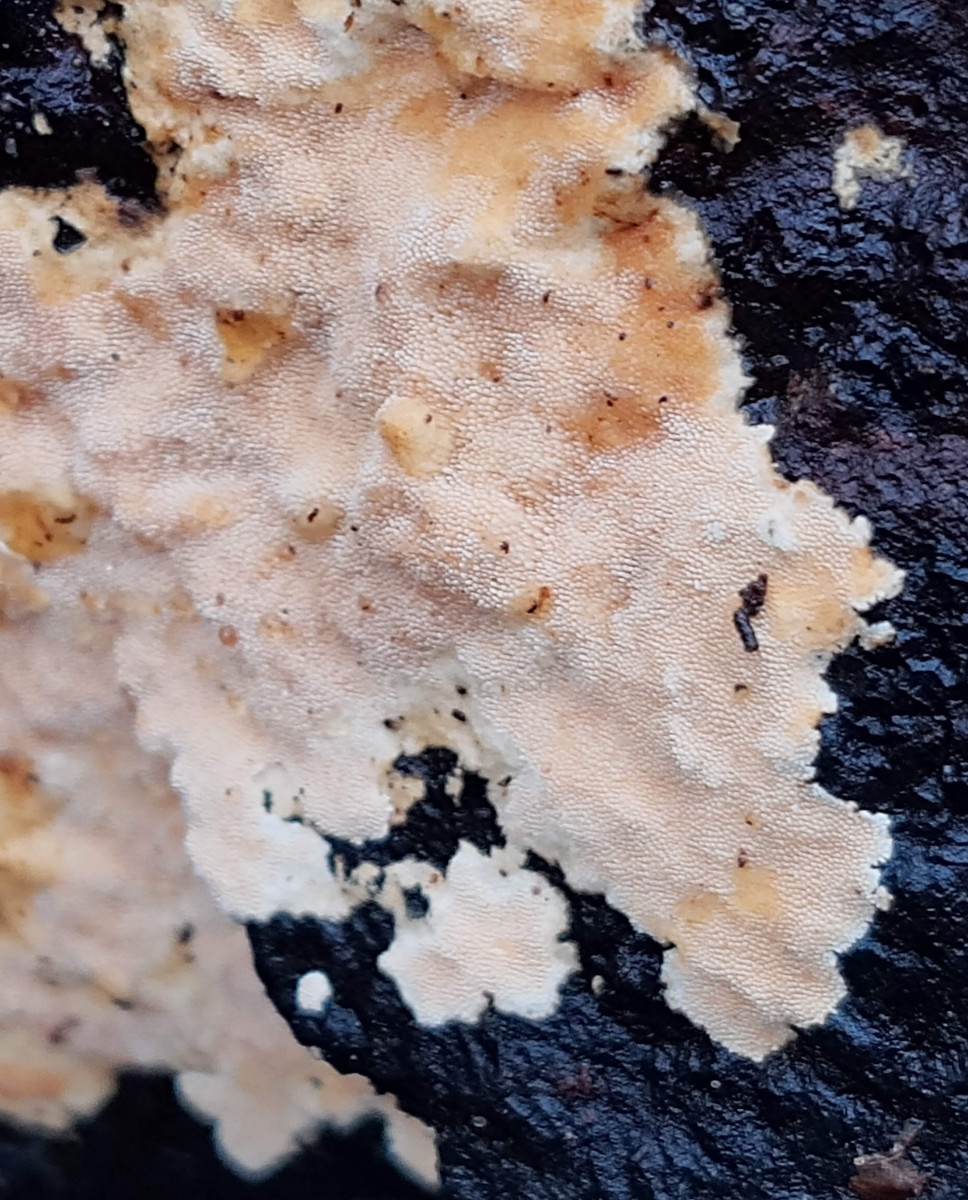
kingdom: Fungi
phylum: Basidiomycota
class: Agaricomycetes
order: Polyporales
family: Steccherinaceae
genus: Steccherinum
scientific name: Steccherinum ochraceum
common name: almindelig skønpig
